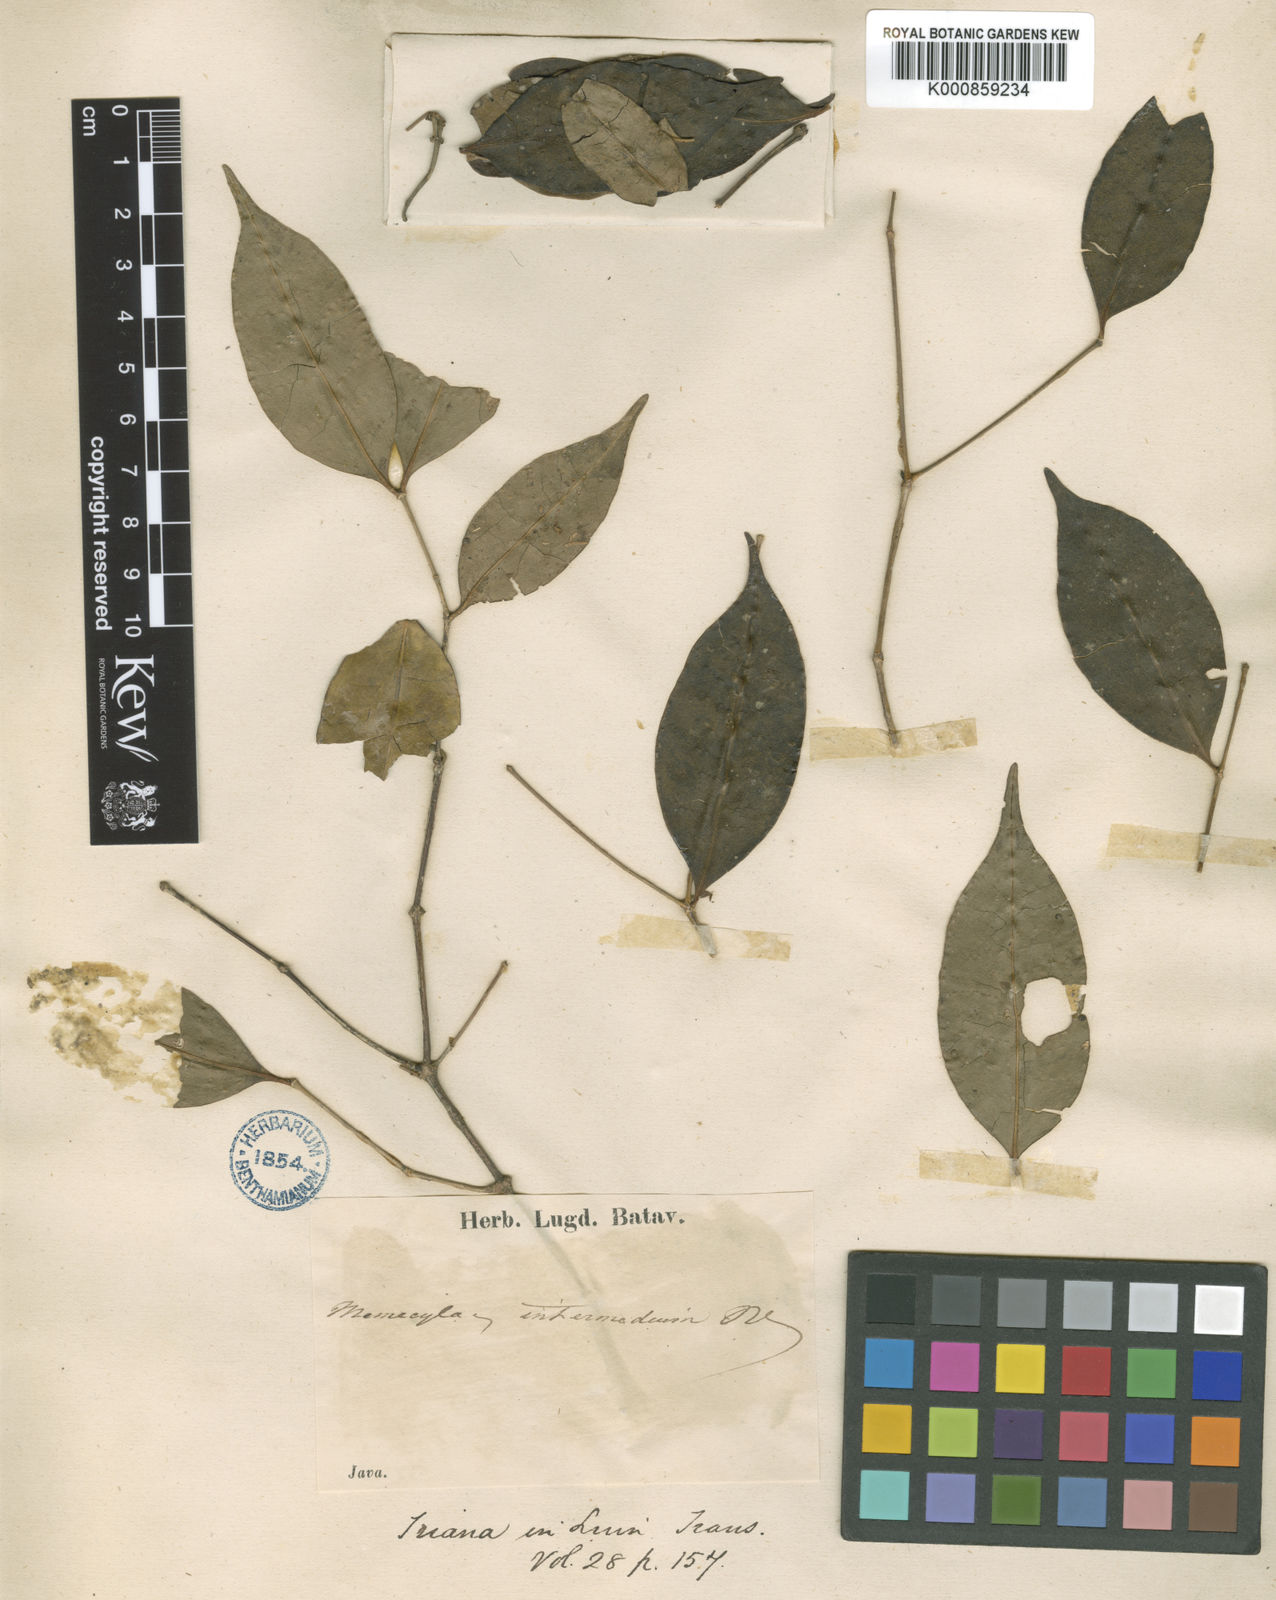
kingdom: Plantae
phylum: Tracheophyta
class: Magnoliopsida
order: Myrtales
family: Melastomataceae
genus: Memecylon
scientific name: Memecylon intermedium
